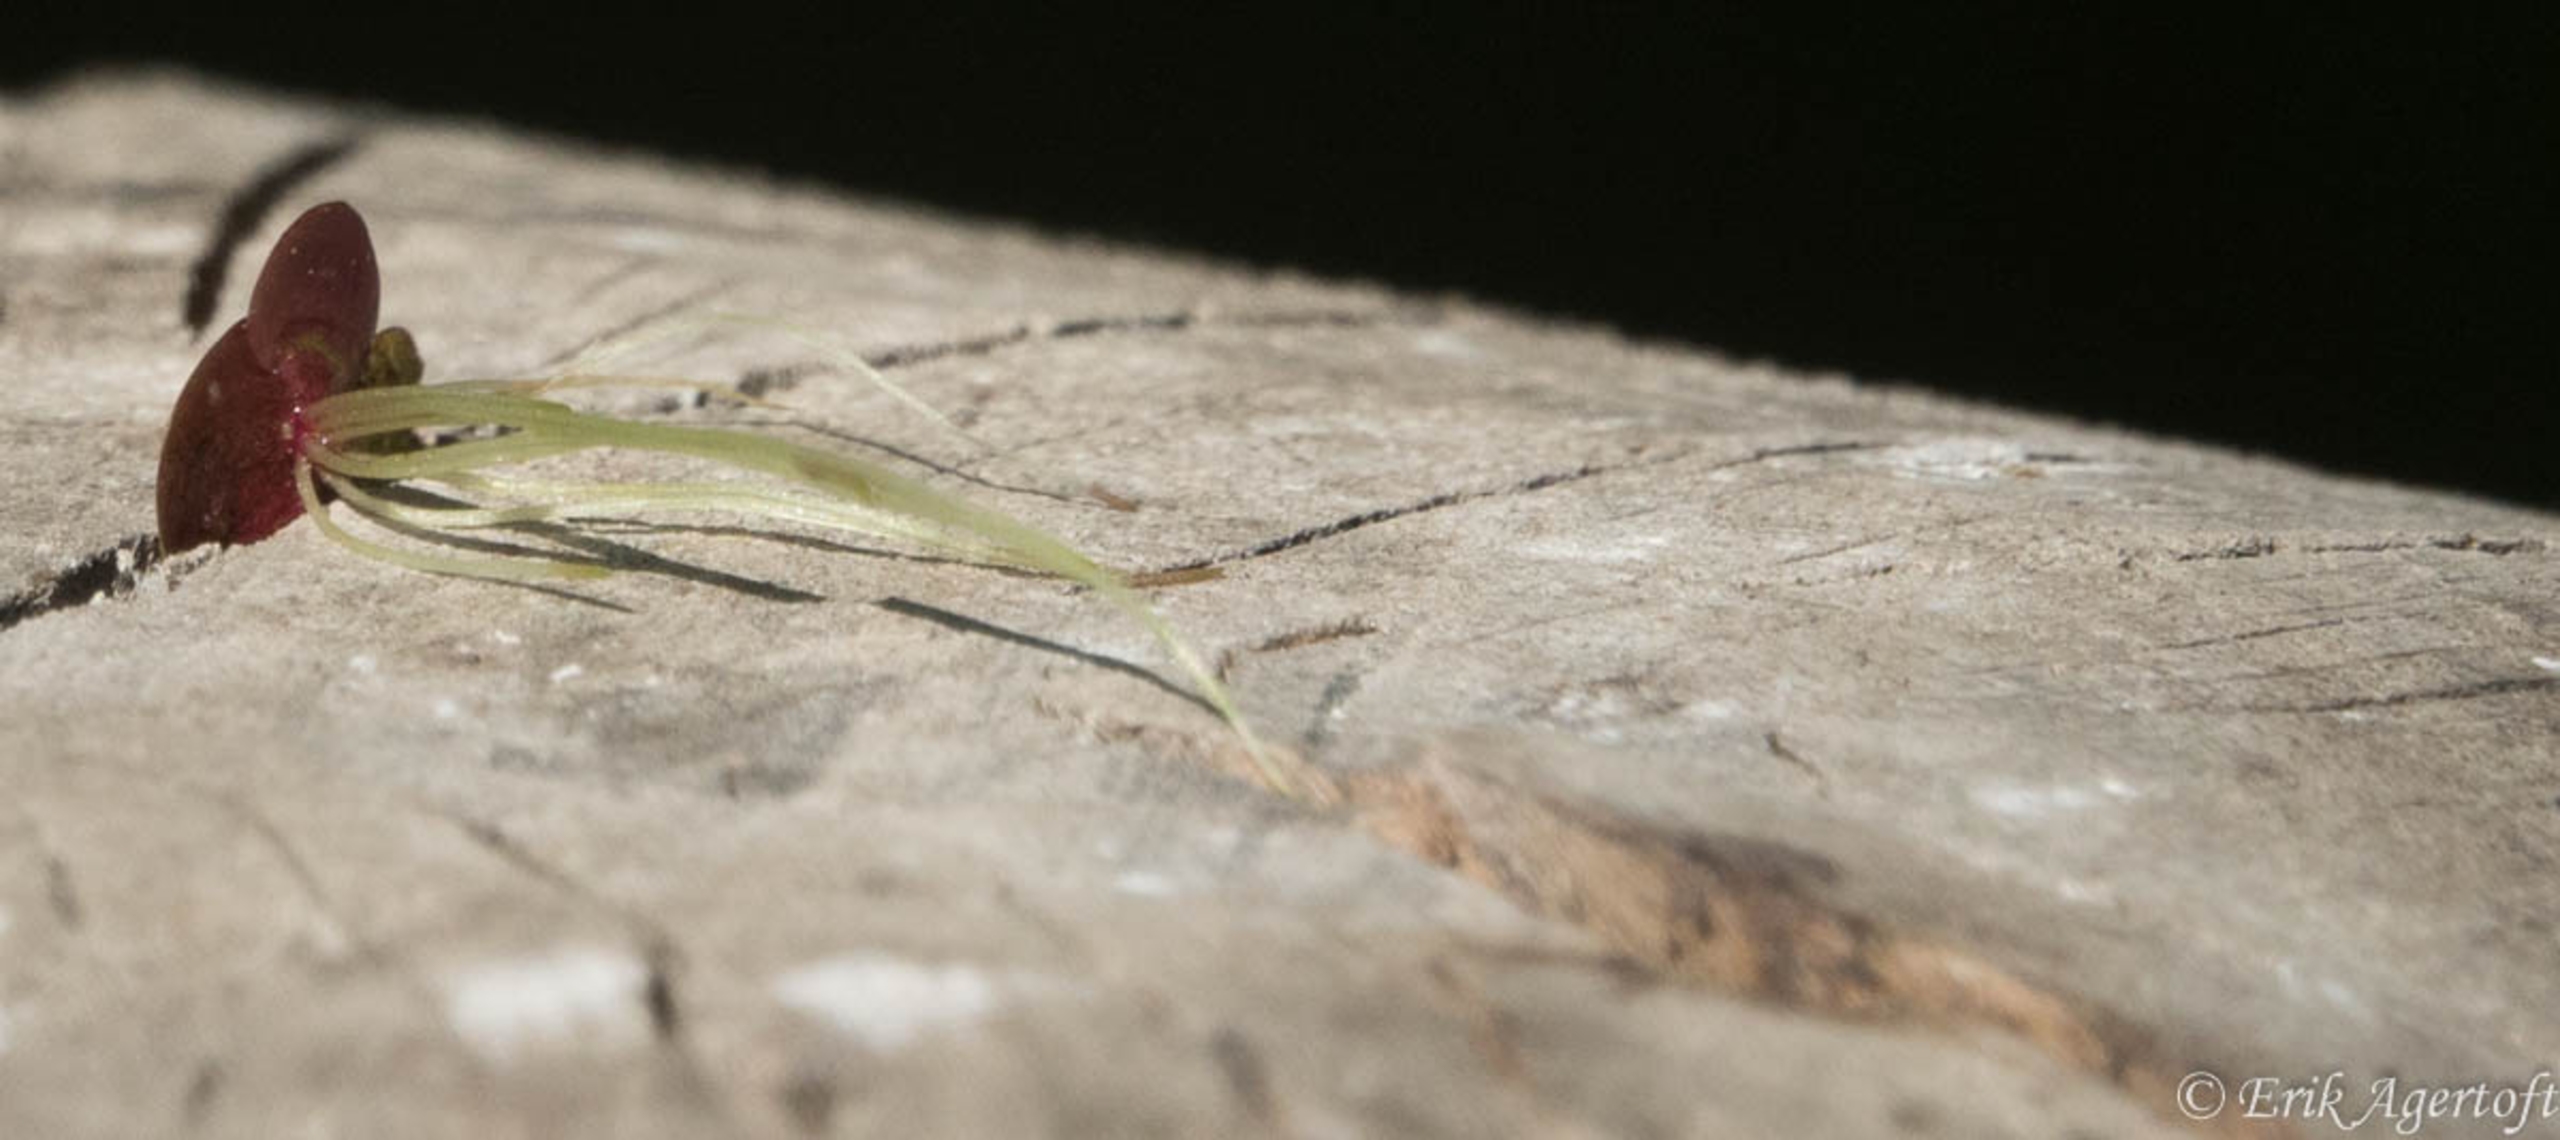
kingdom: Plantae
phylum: Tracheophyta
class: Liliopsida
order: Alismatales
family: Araceae
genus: Spirodela
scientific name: Spirodela polyrhiza
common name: Stor andemad
